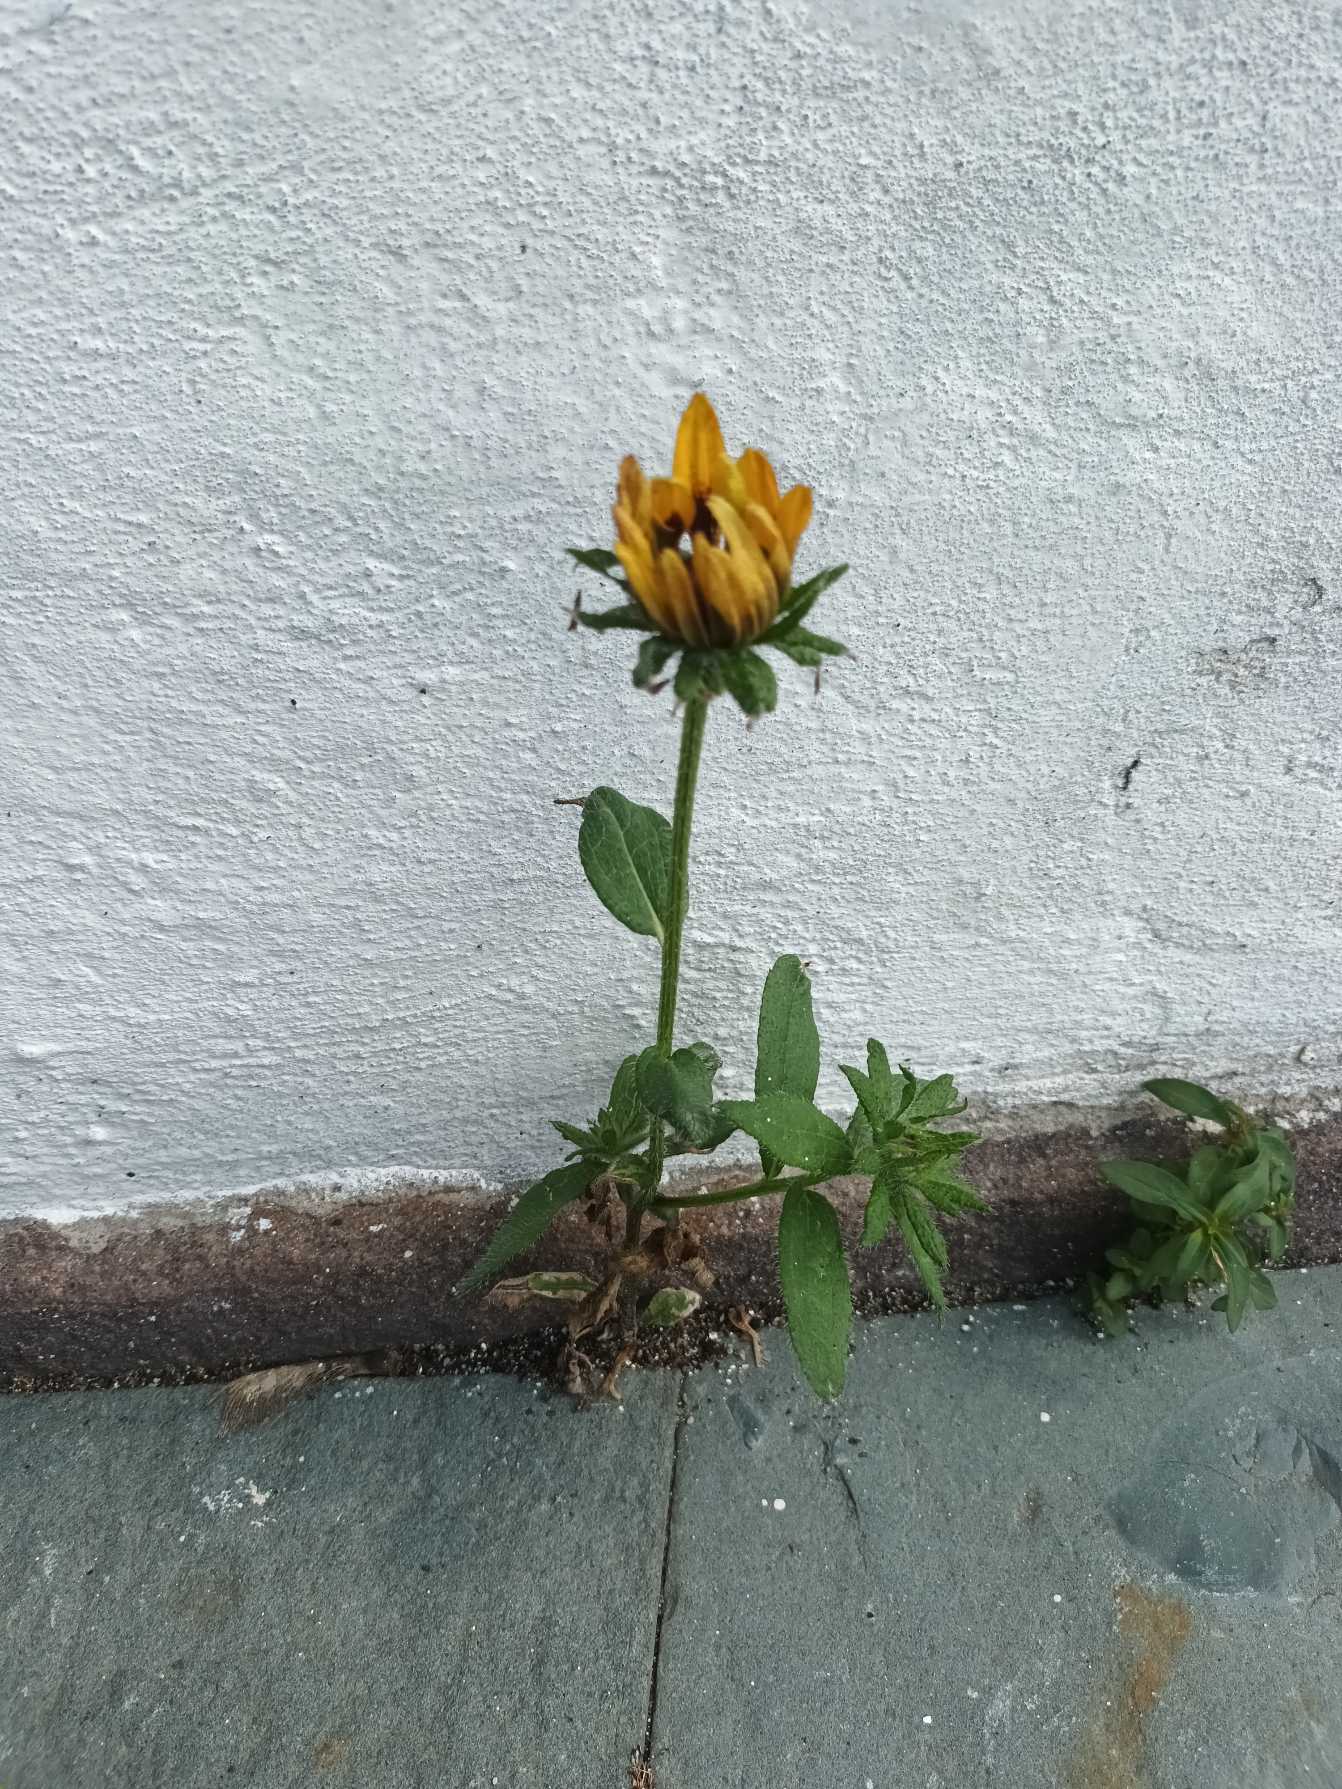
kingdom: Plantae
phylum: Tracheophyta
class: Magnoliopsida
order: Asterales
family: Asteraceae
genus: Rudbeckia
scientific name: Rudbeckia hirta
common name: Håret solhat
